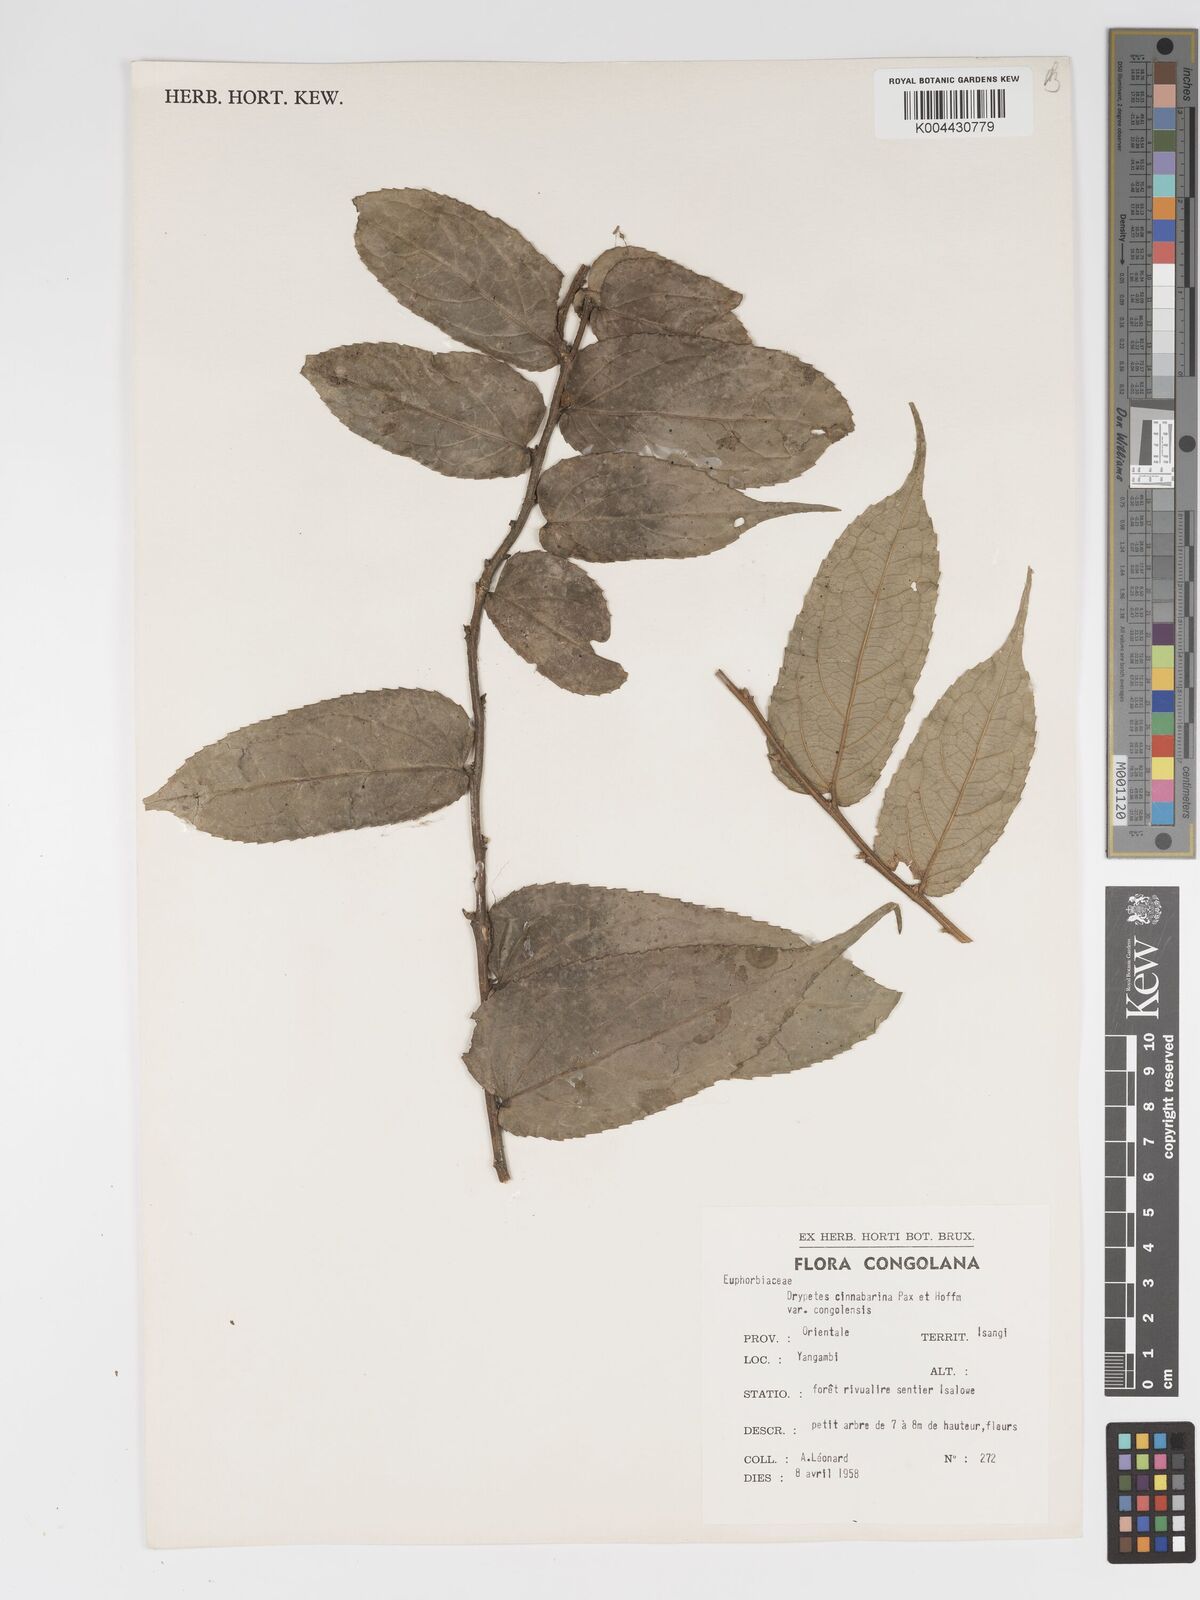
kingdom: Plantae
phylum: Tracheophyta
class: Magnoliopsida
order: Malpighiales
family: Putranjivaceae
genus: Drypetes
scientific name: Drypetes cinnabarina
